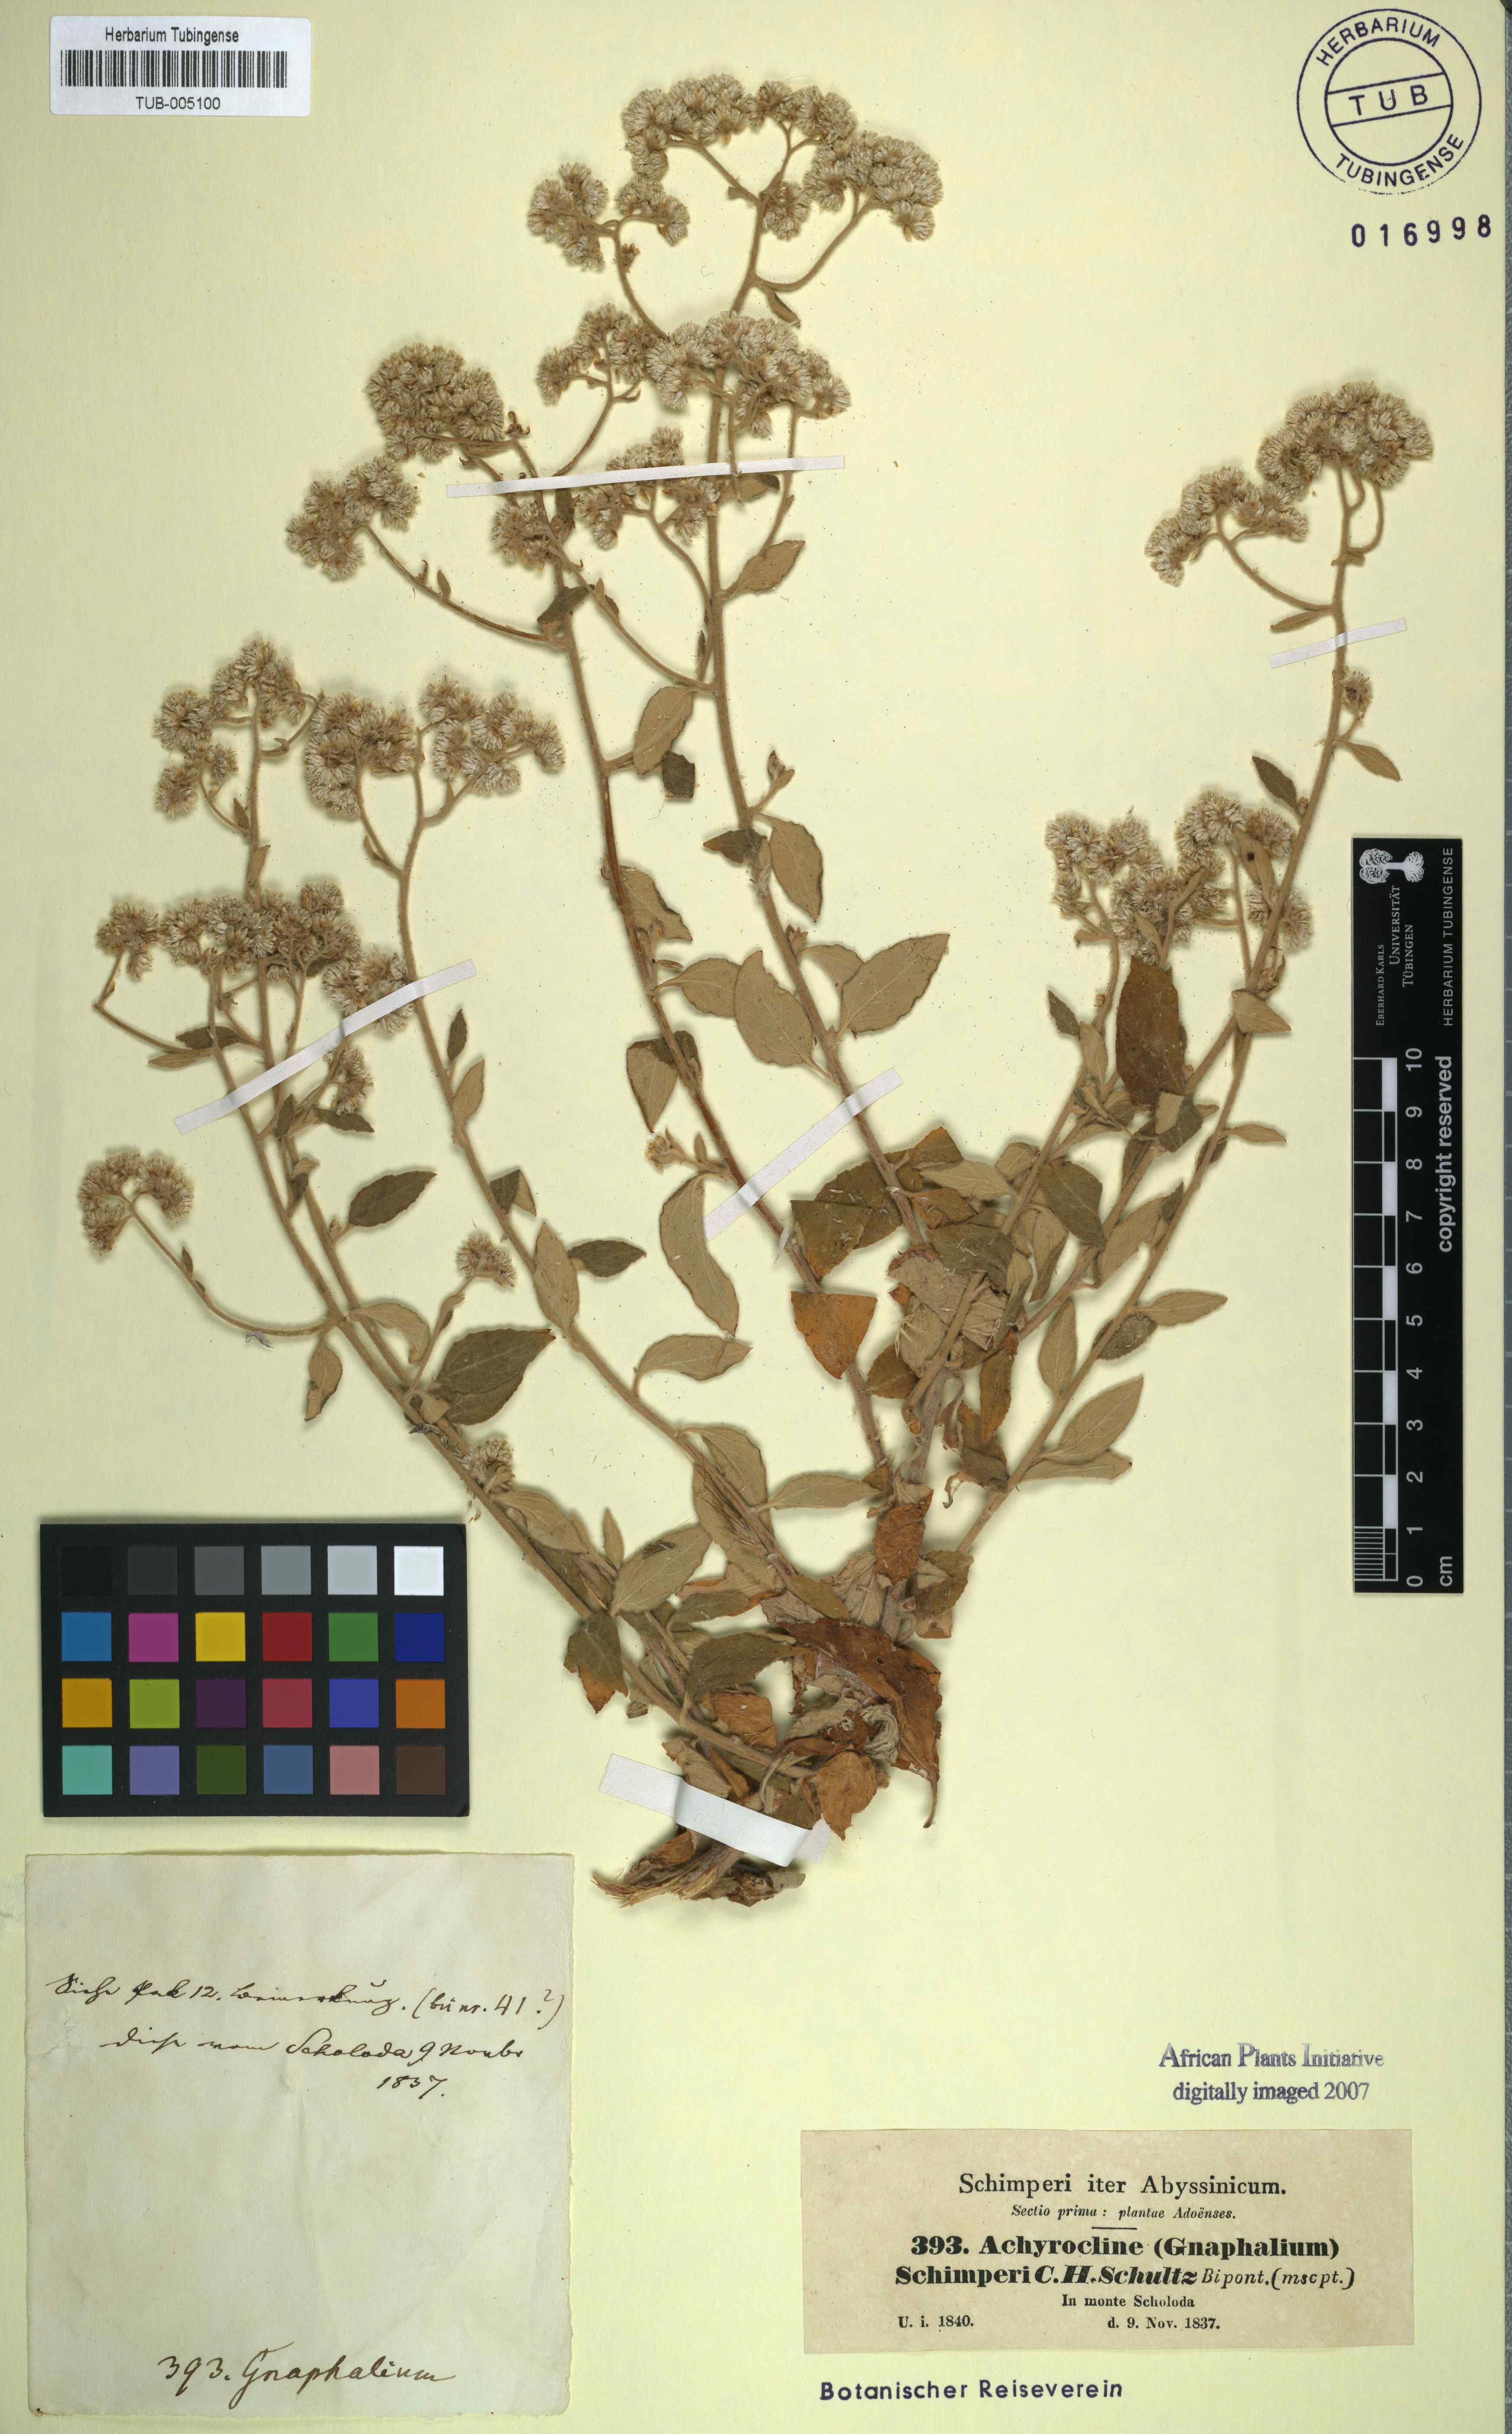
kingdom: Plantae
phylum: Tracheophyta
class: Magnoliopsida
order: Asterales
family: Asteraceae
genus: Helichrysum
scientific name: Helichrysum schimperi
